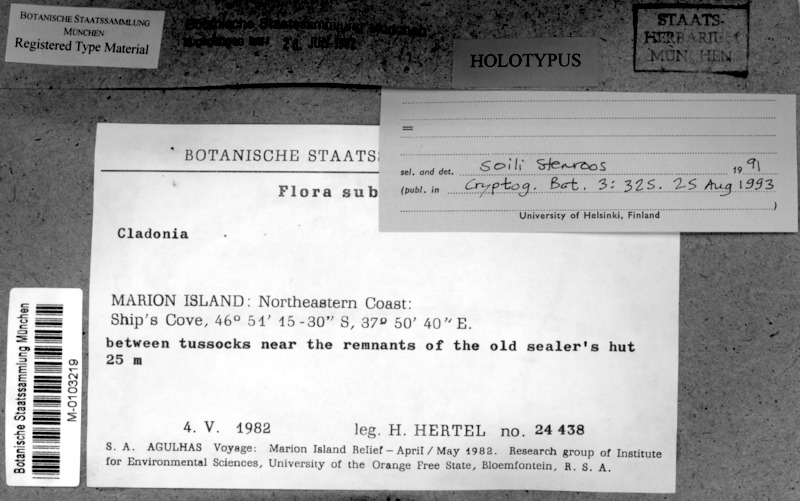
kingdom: Fungi
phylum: Ascomycota
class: Lecanoromycetes
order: Lecanorales
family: Cladoniaceae
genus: Cladonia
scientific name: Cladonia marionii
